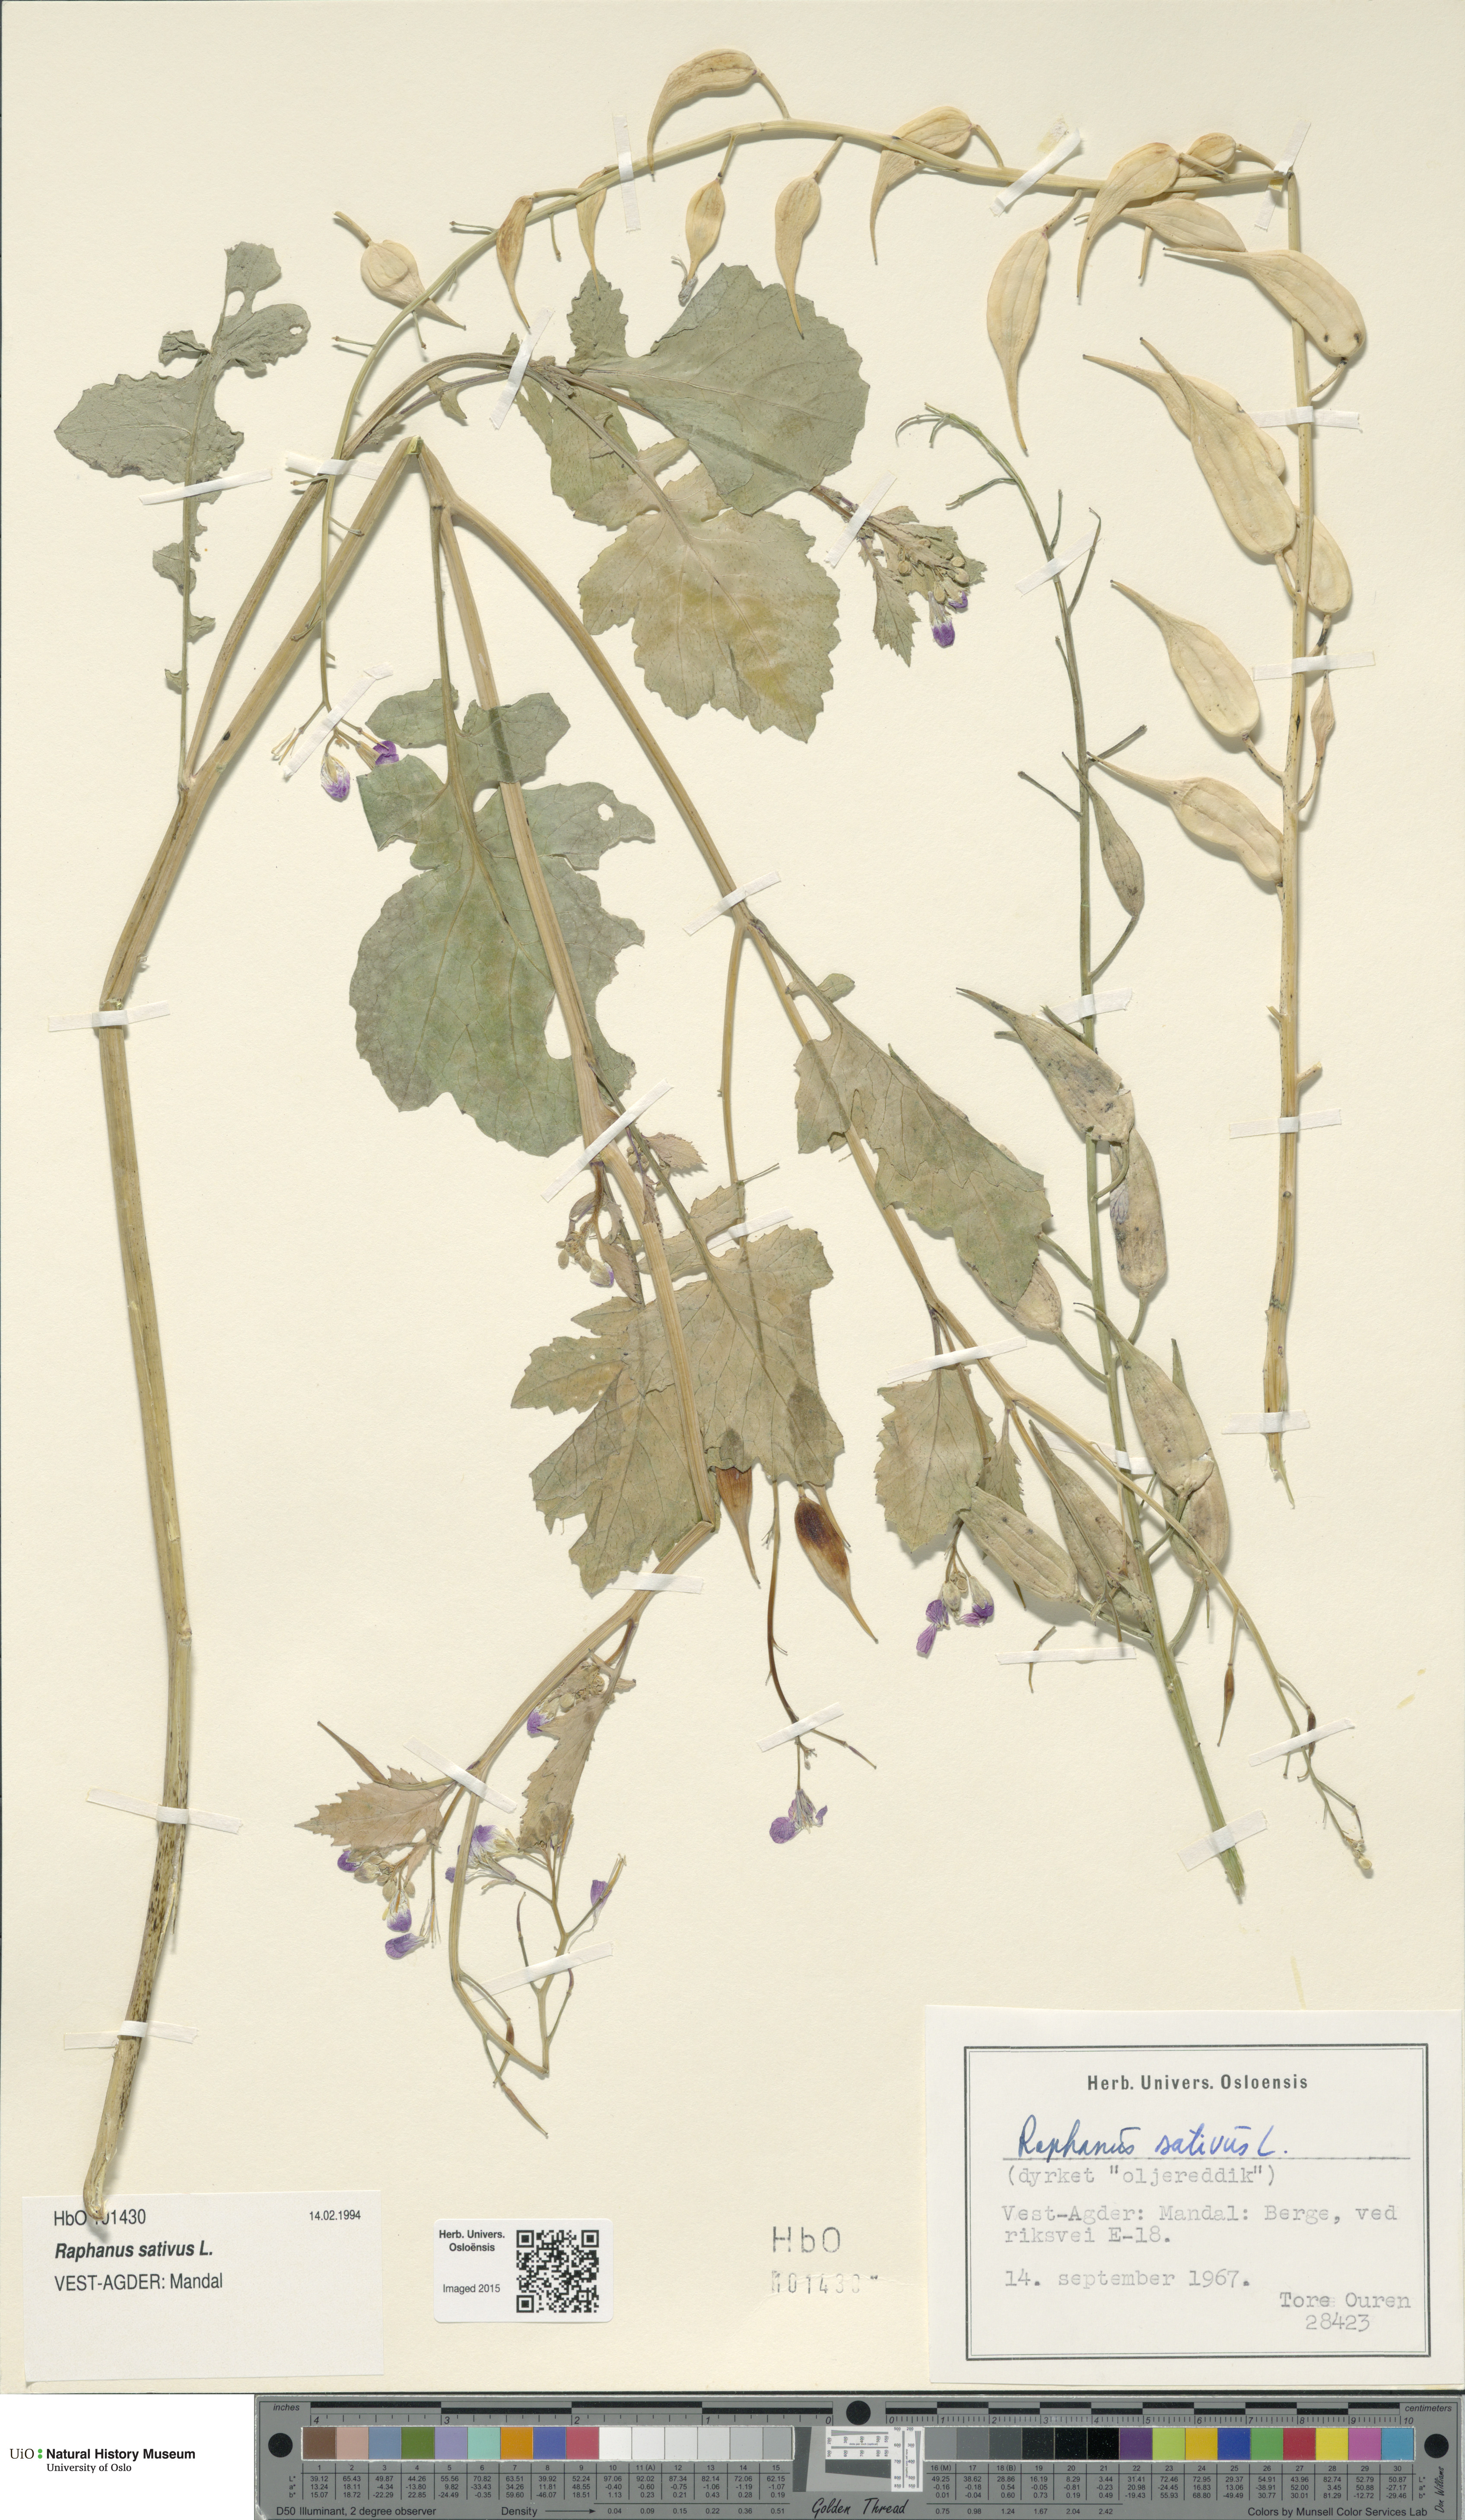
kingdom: Plantae
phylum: Tracheophyta
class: Magnoliopsida
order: Brassicales
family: Brassicaceae
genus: Raphanus
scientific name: Raphanus sativus
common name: Cultivated radish
